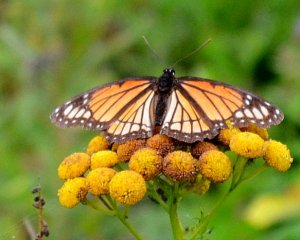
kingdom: Animalia
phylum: Arthropoda
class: Insecta
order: Lepidoptera
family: Nymphalidae
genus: Limenitis
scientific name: Limenitis archippus
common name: Viceroy
